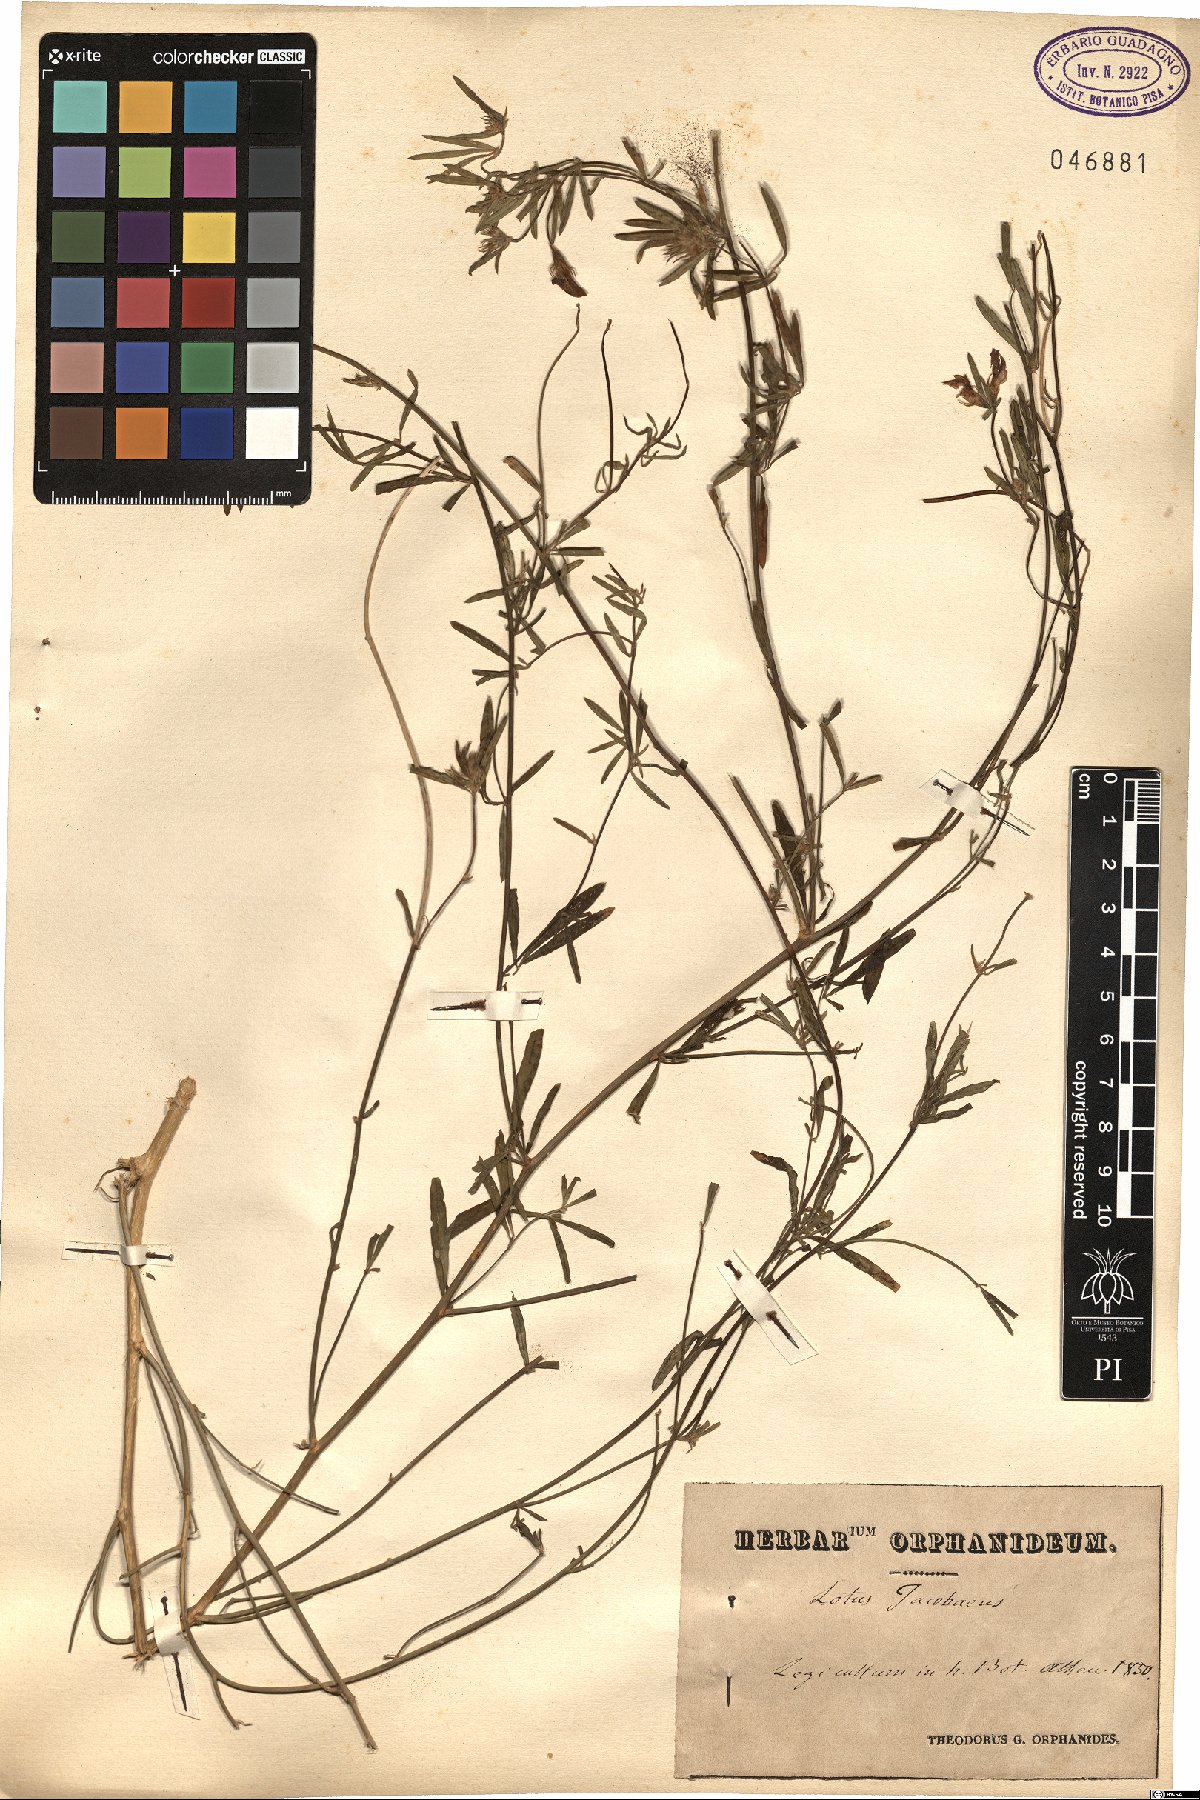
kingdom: Plantae
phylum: Tracheophyta
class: Magnoliopsida
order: Fabales
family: Fabaceae
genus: Lotus
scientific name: Lotus jacobaeus
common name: St. james's trefoil
